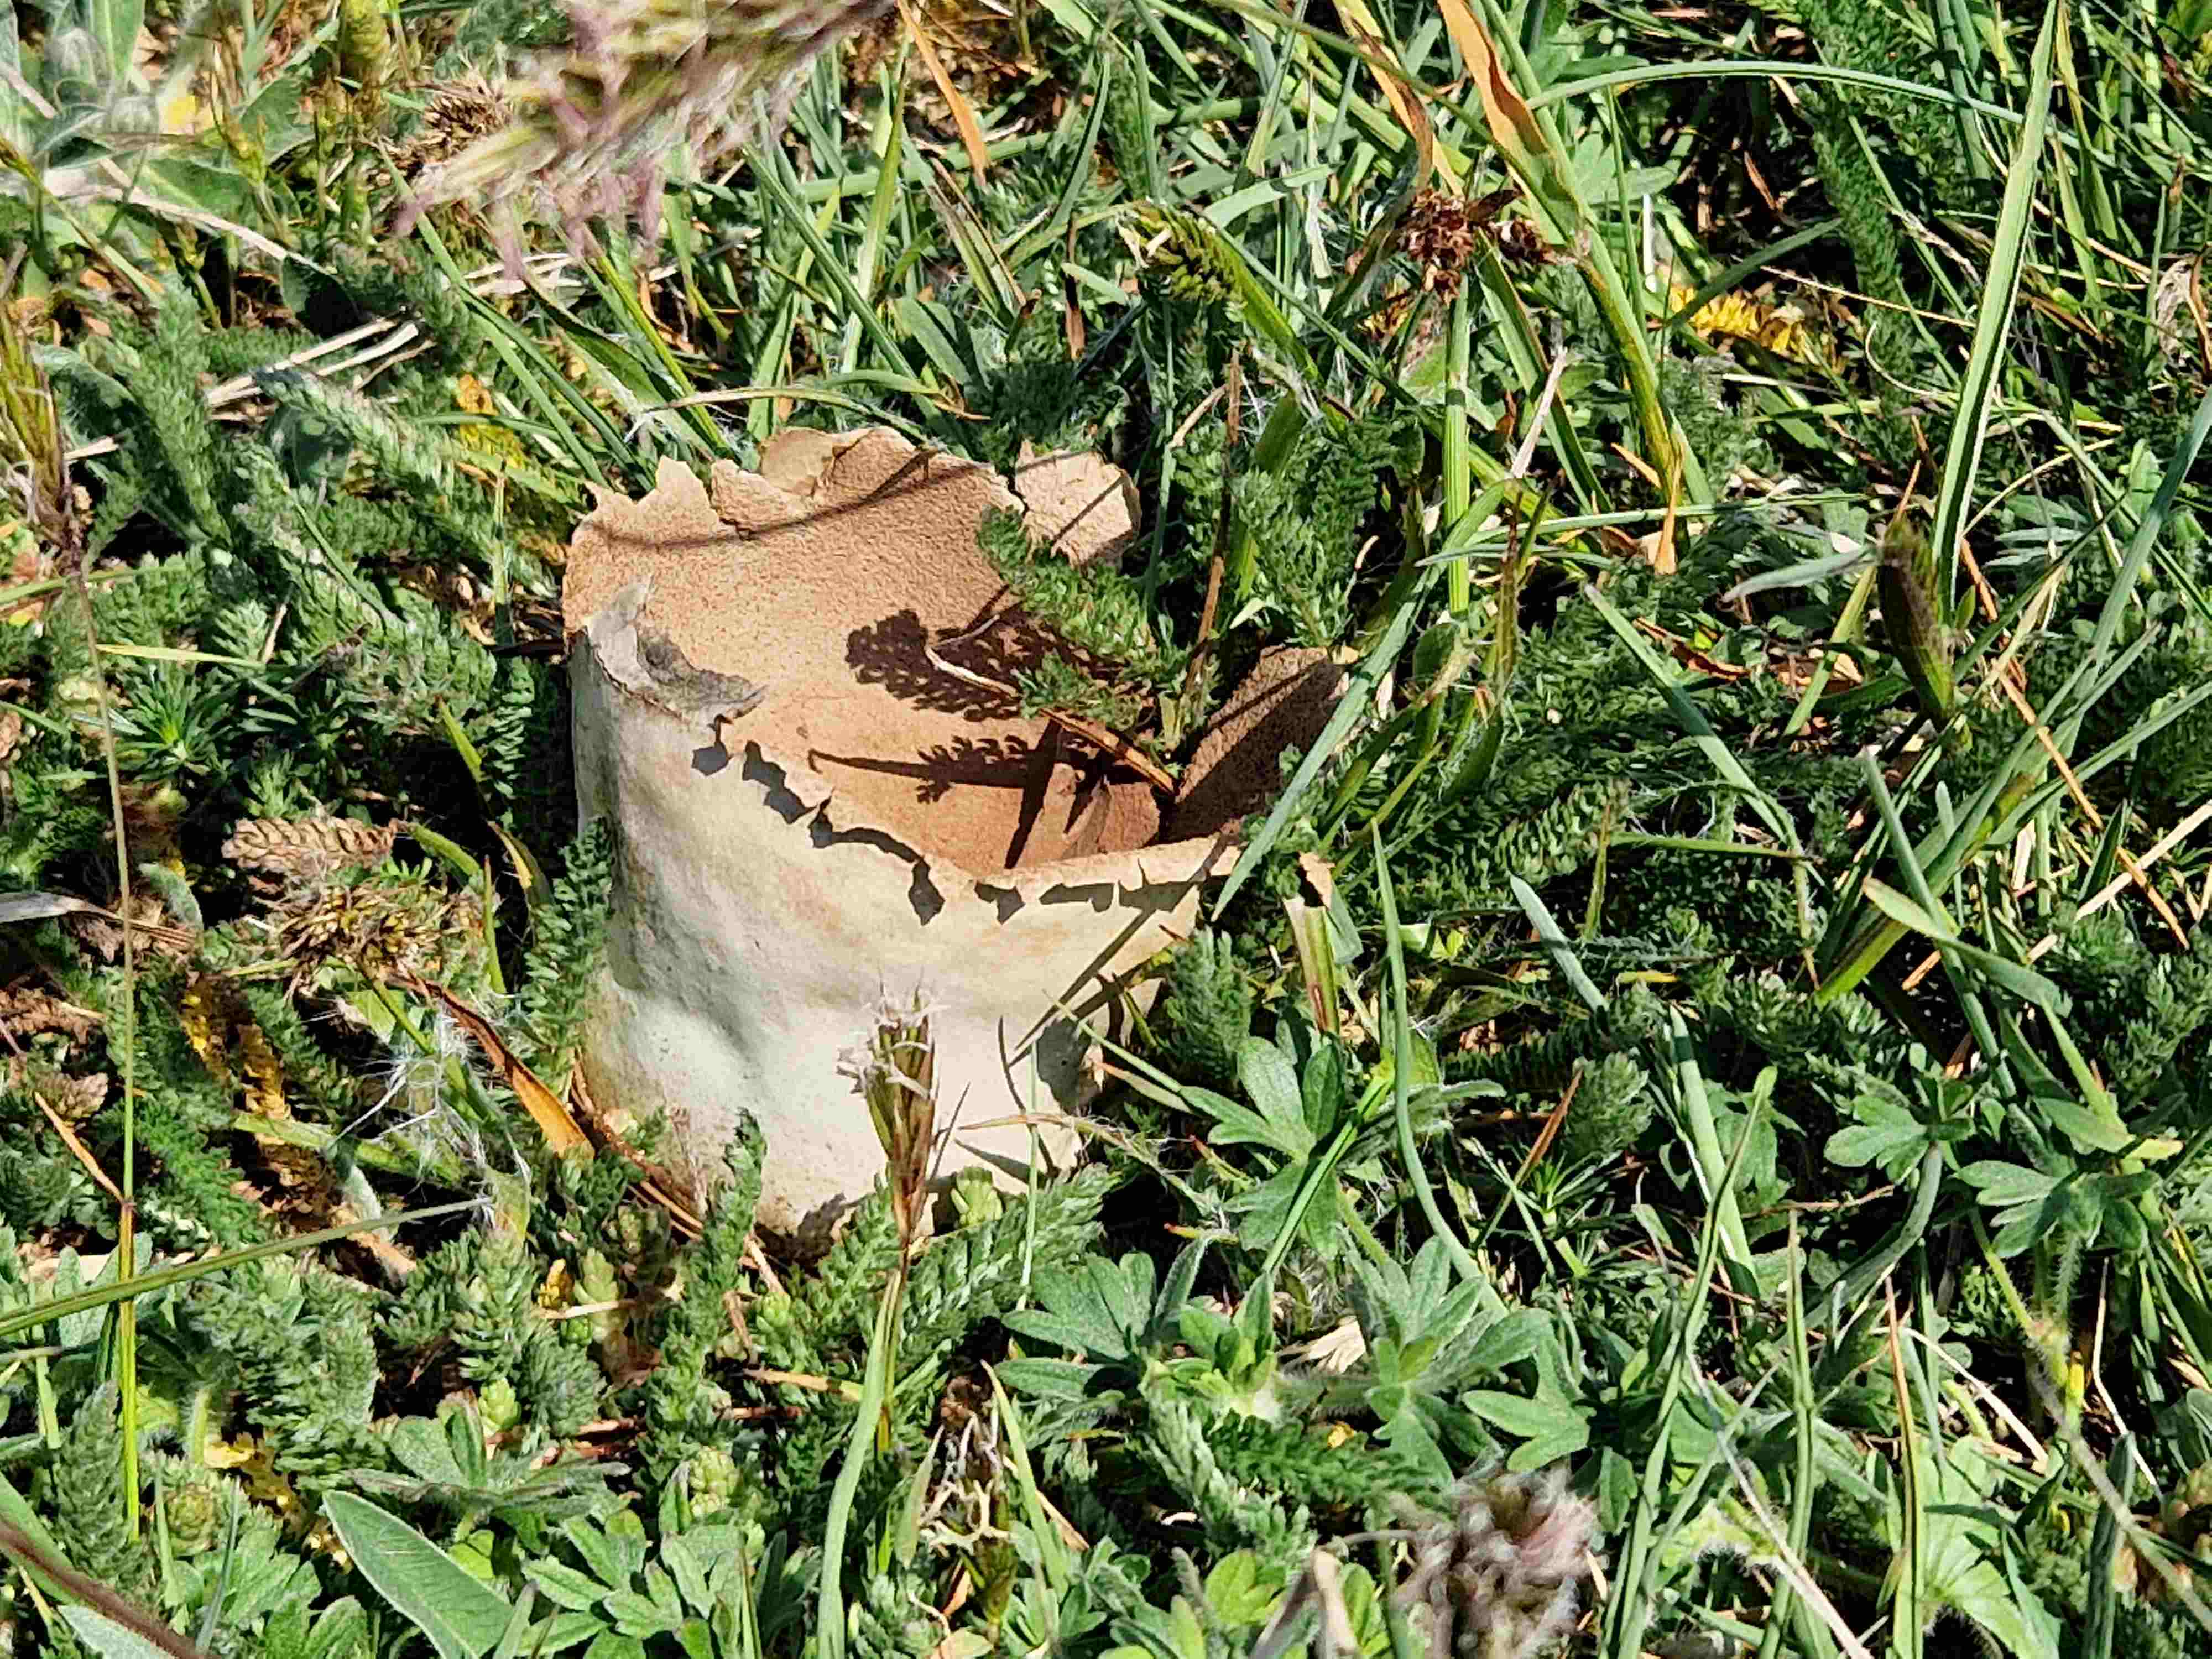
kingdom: Fungi
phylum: Basidiomycota
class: Agaricomycetes
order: Agaricales
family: Lycoperdaceae
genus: Bovistella
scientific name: Bovistella utriformis
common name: skællet støvbold
